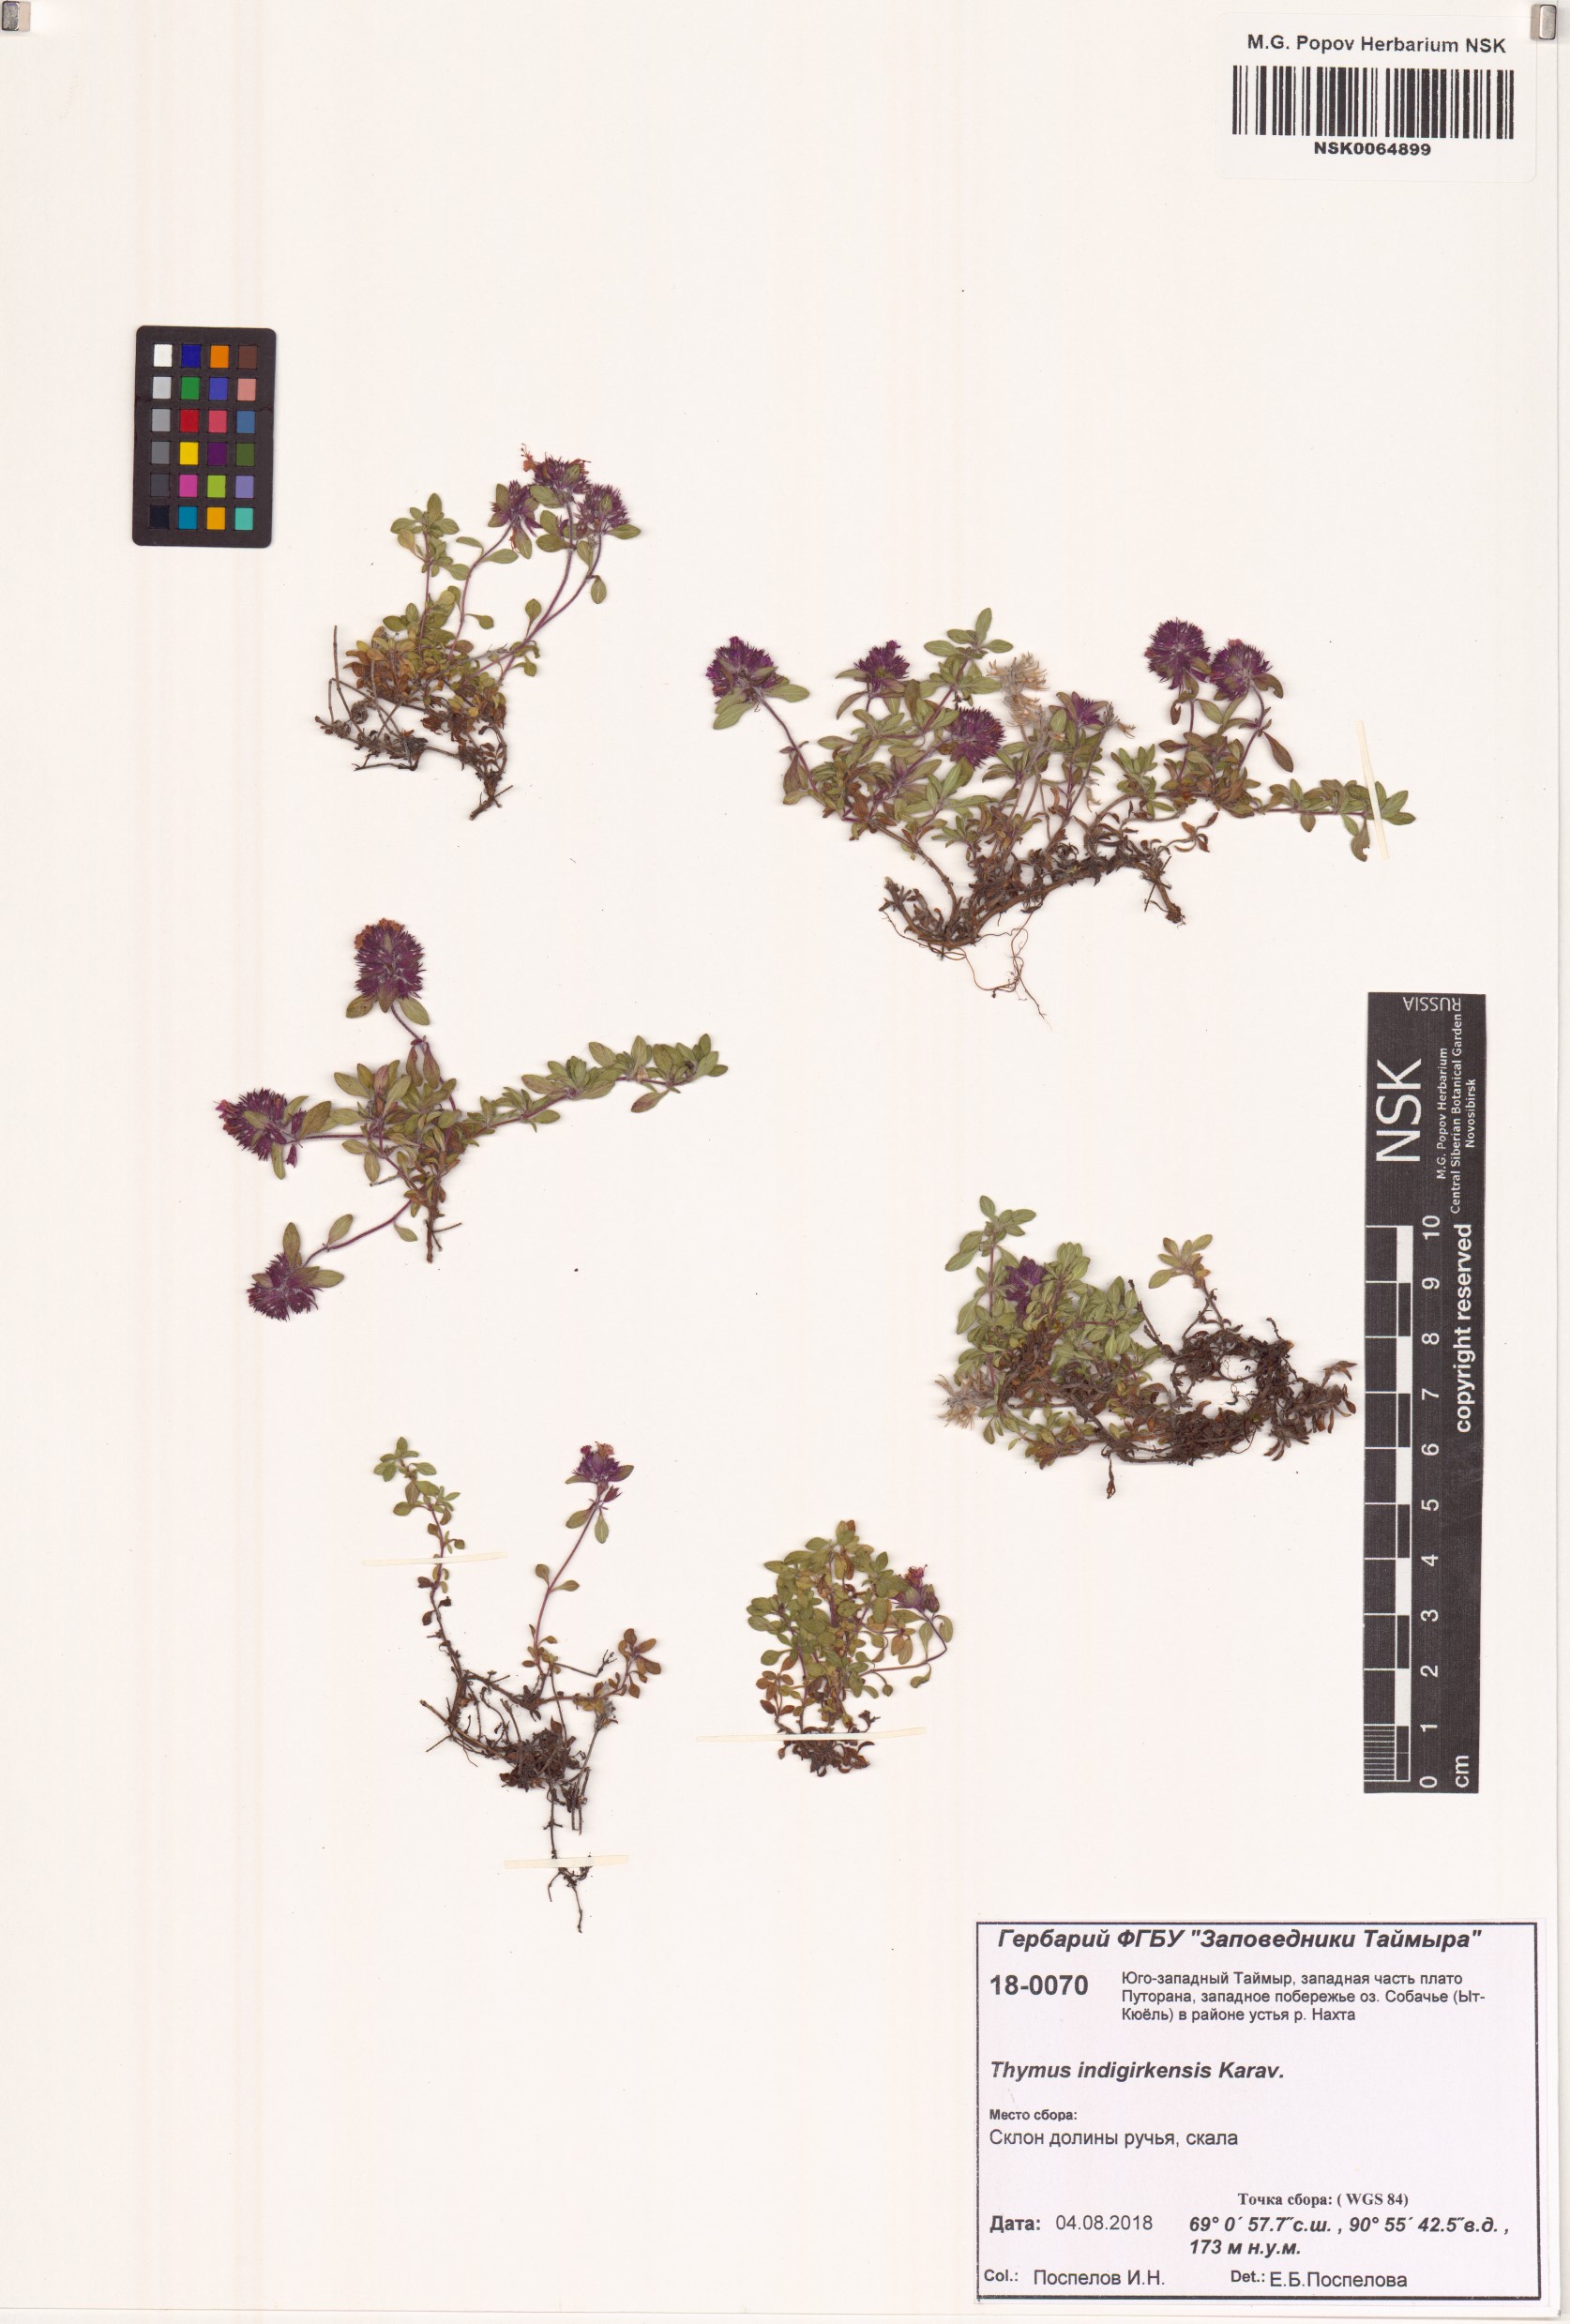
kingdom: Plantae
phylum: Tracheophyta
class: Magnoliopsida
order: Lamiales
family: Lamiaceae
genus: Thymus
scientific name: Thymus indigirkensis
